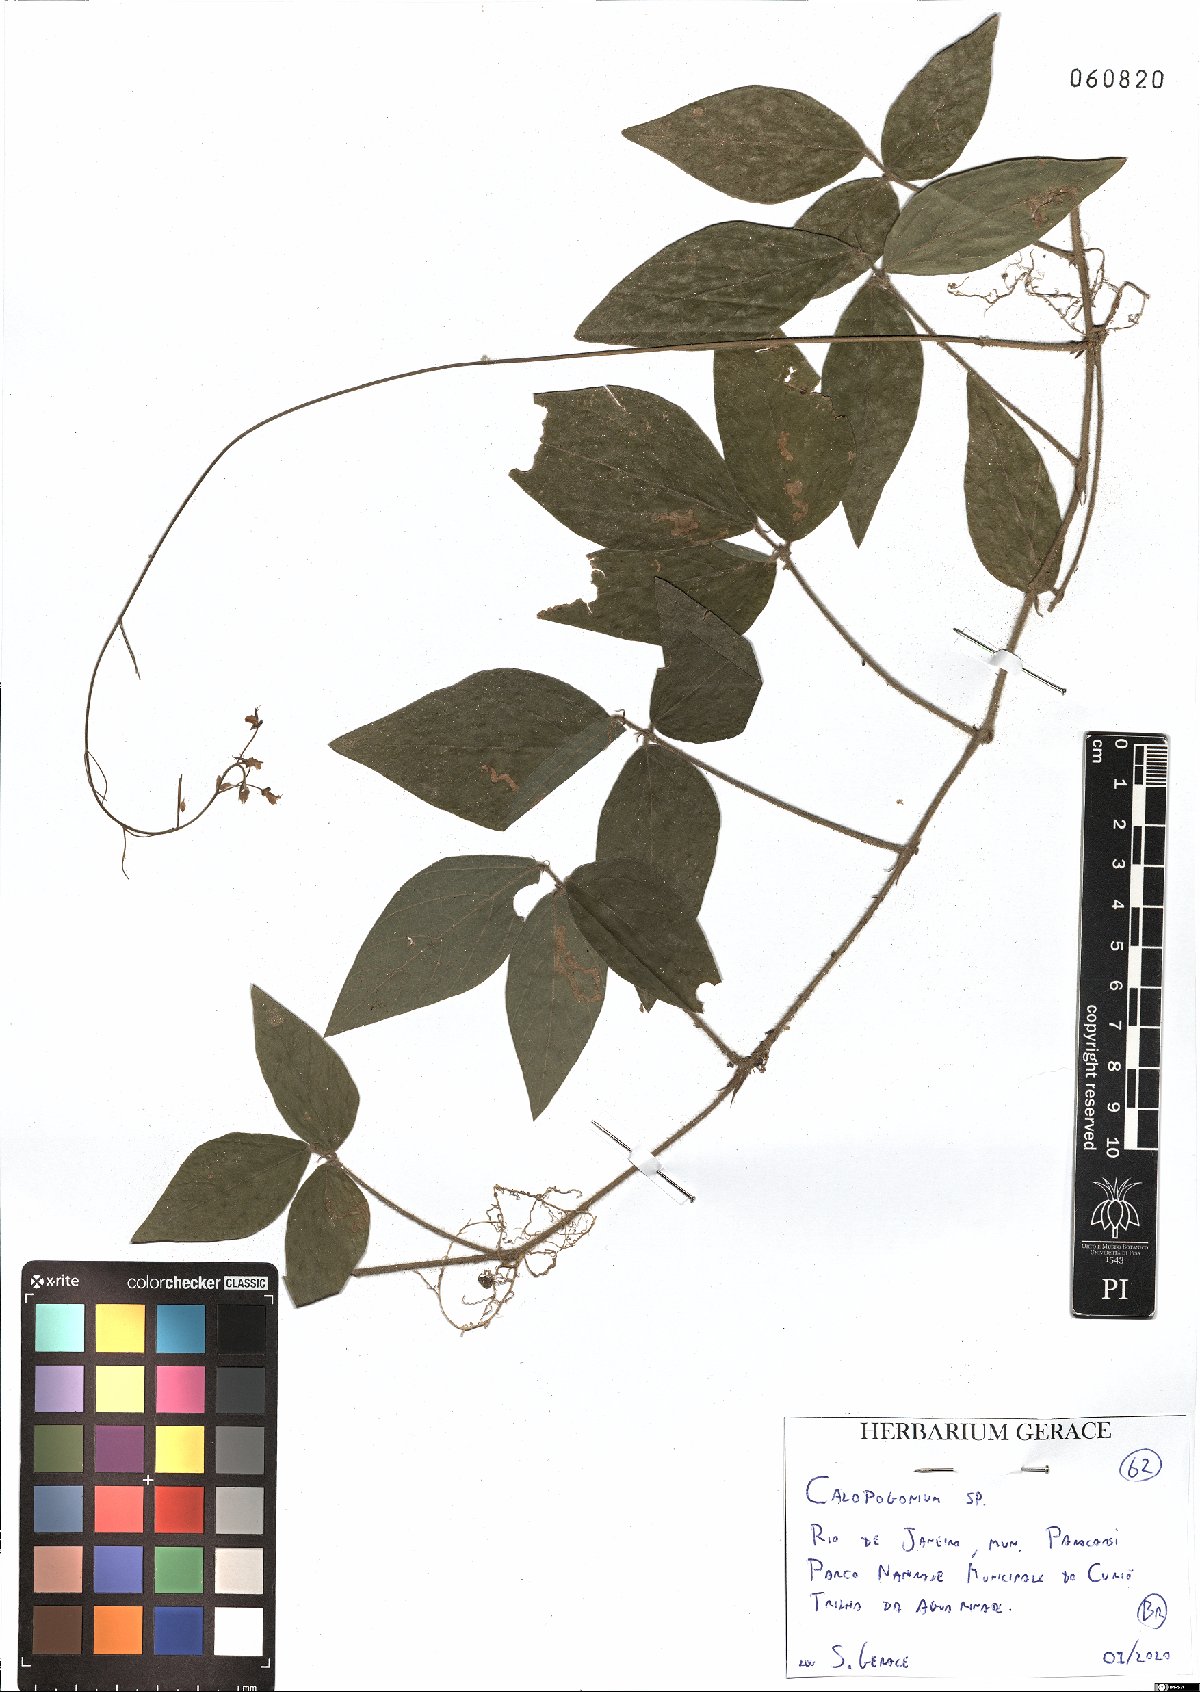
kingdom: Plantae
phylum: Tracheophyta
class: Magnoliopsida
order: Fabales
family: Fabaceae
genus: Calopogonium
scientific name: Calopogonium
